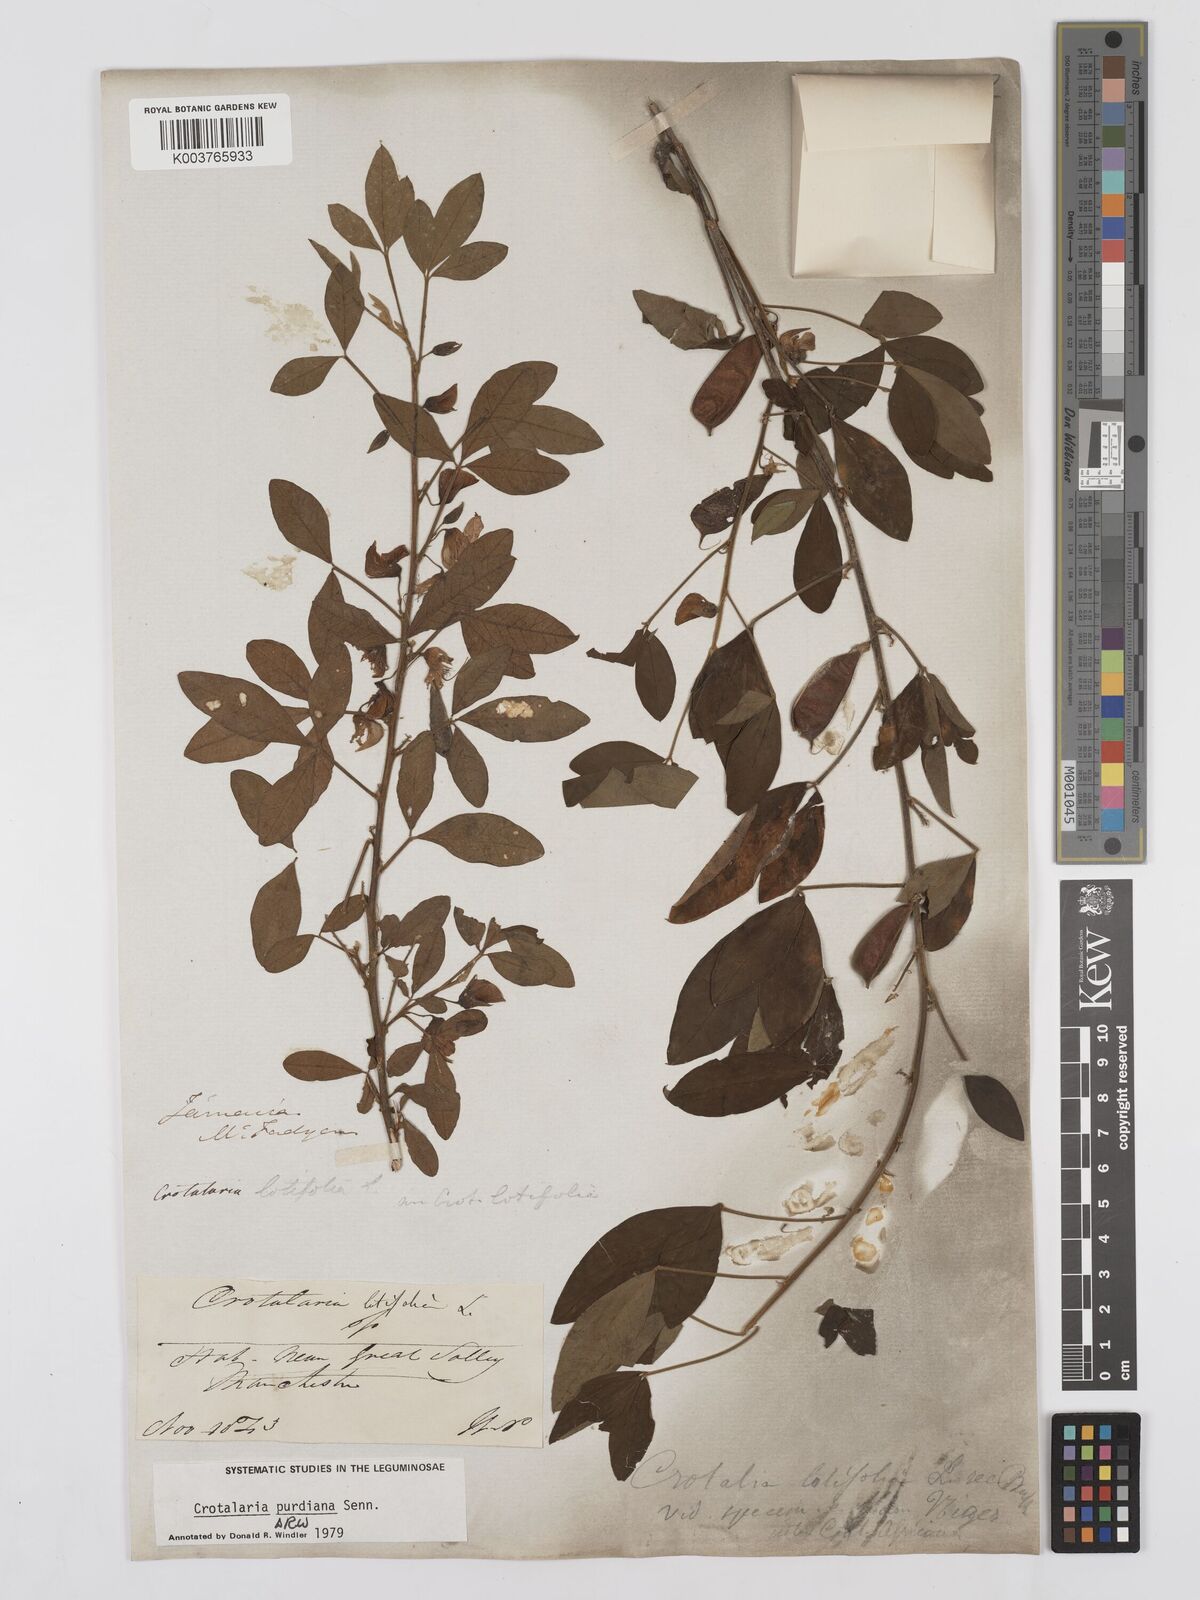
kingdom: Plantae
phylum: Tracheophyta
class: Magnoliopsida
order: Fabales
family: Fabaceae
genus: Crotalaria
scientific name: Crotalaria purdieana
